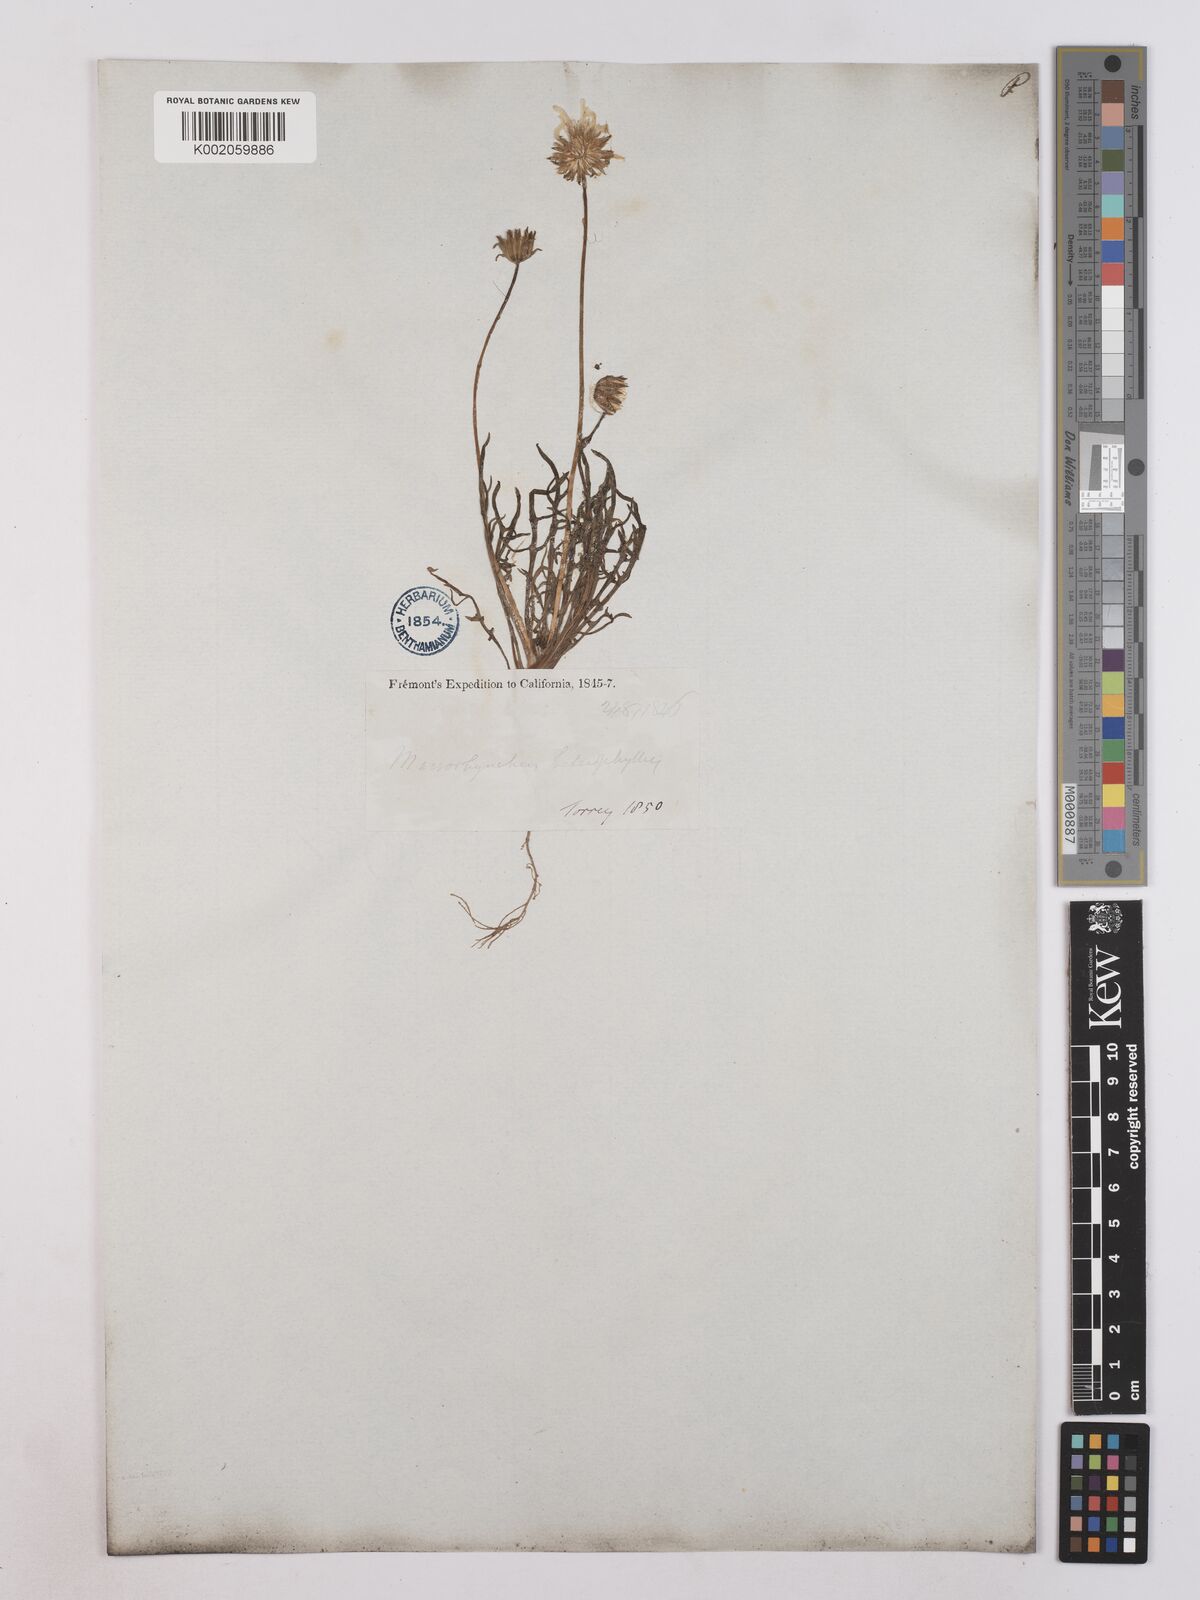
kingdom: Plantae
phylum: Tracheophyta
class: Magnoliopsida
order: Asterales
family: Asteraceae
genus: Agoseris
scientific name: Agoseris heterophylla
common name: Annual agoseris
